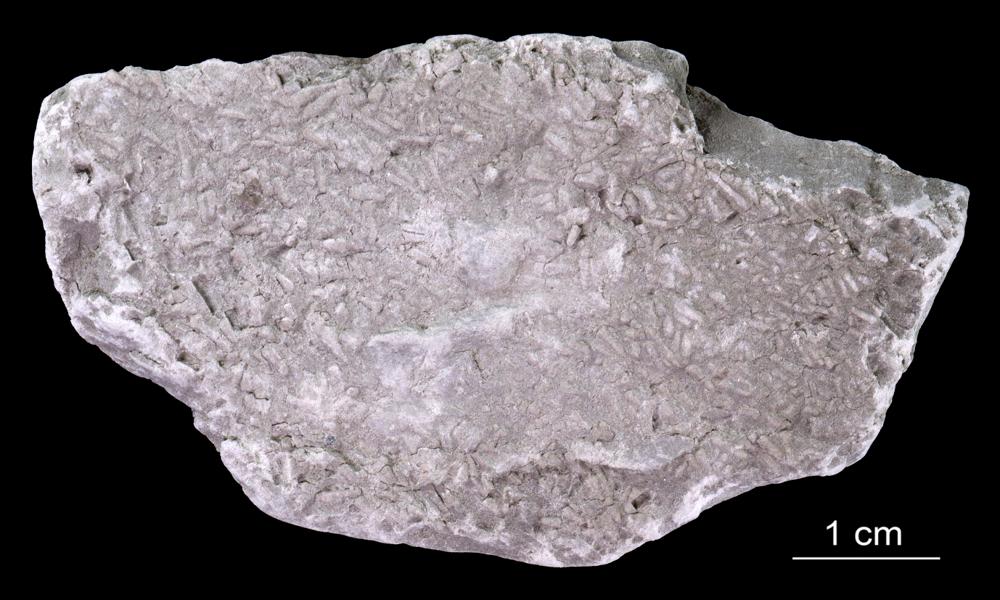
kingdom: Animalia
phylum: Annelida
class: Polychaeta
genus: Volborthella
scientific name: Volborthella tenuis
